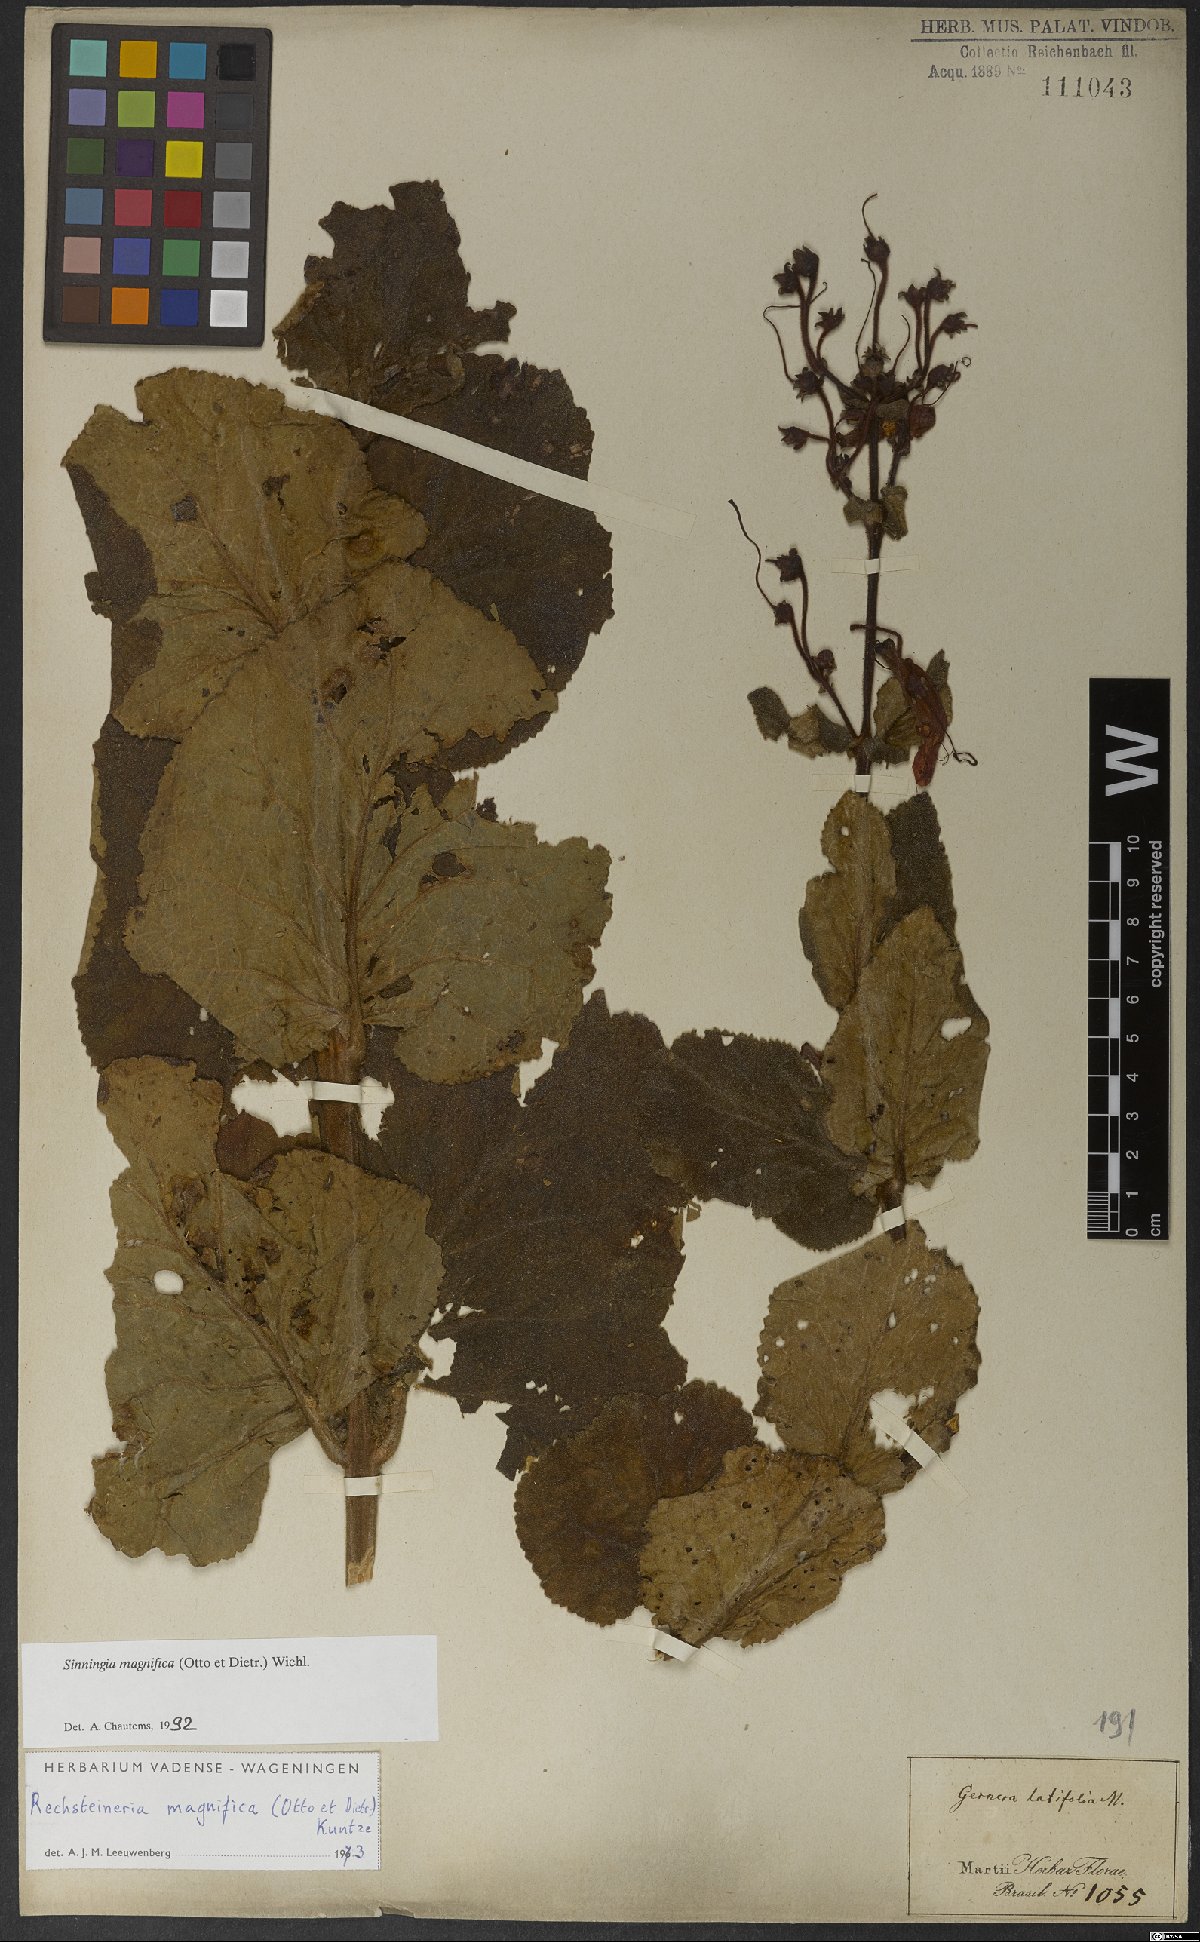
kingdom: Plantae
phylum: Tracheophyta
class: Magnoliopsida
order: Lamiales
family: Gesneriaceae
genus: Sinningia
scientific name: Sinningia magnifica
